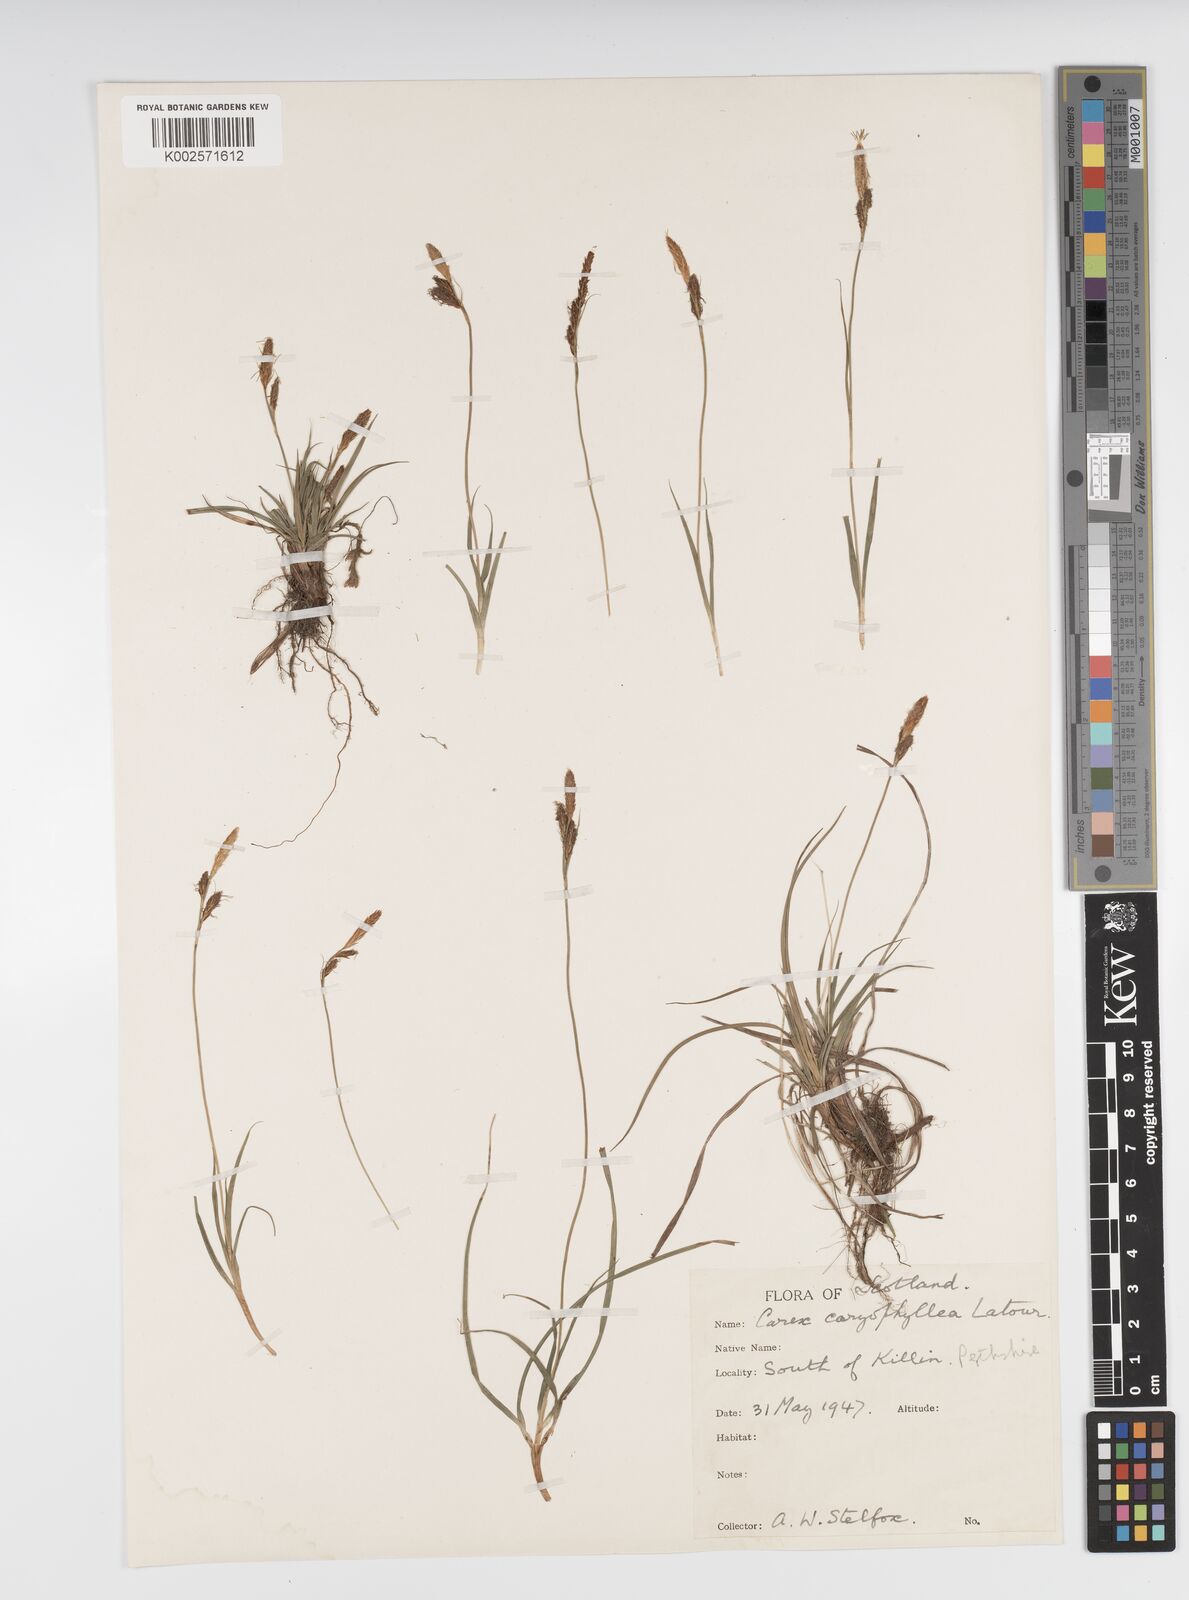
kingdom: Plantae
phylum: Tracheophyta
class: Liliopsida
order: Poales
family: Cyperaceae
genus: Carex
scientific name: Carex caryophyllea
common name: Spring sedge
